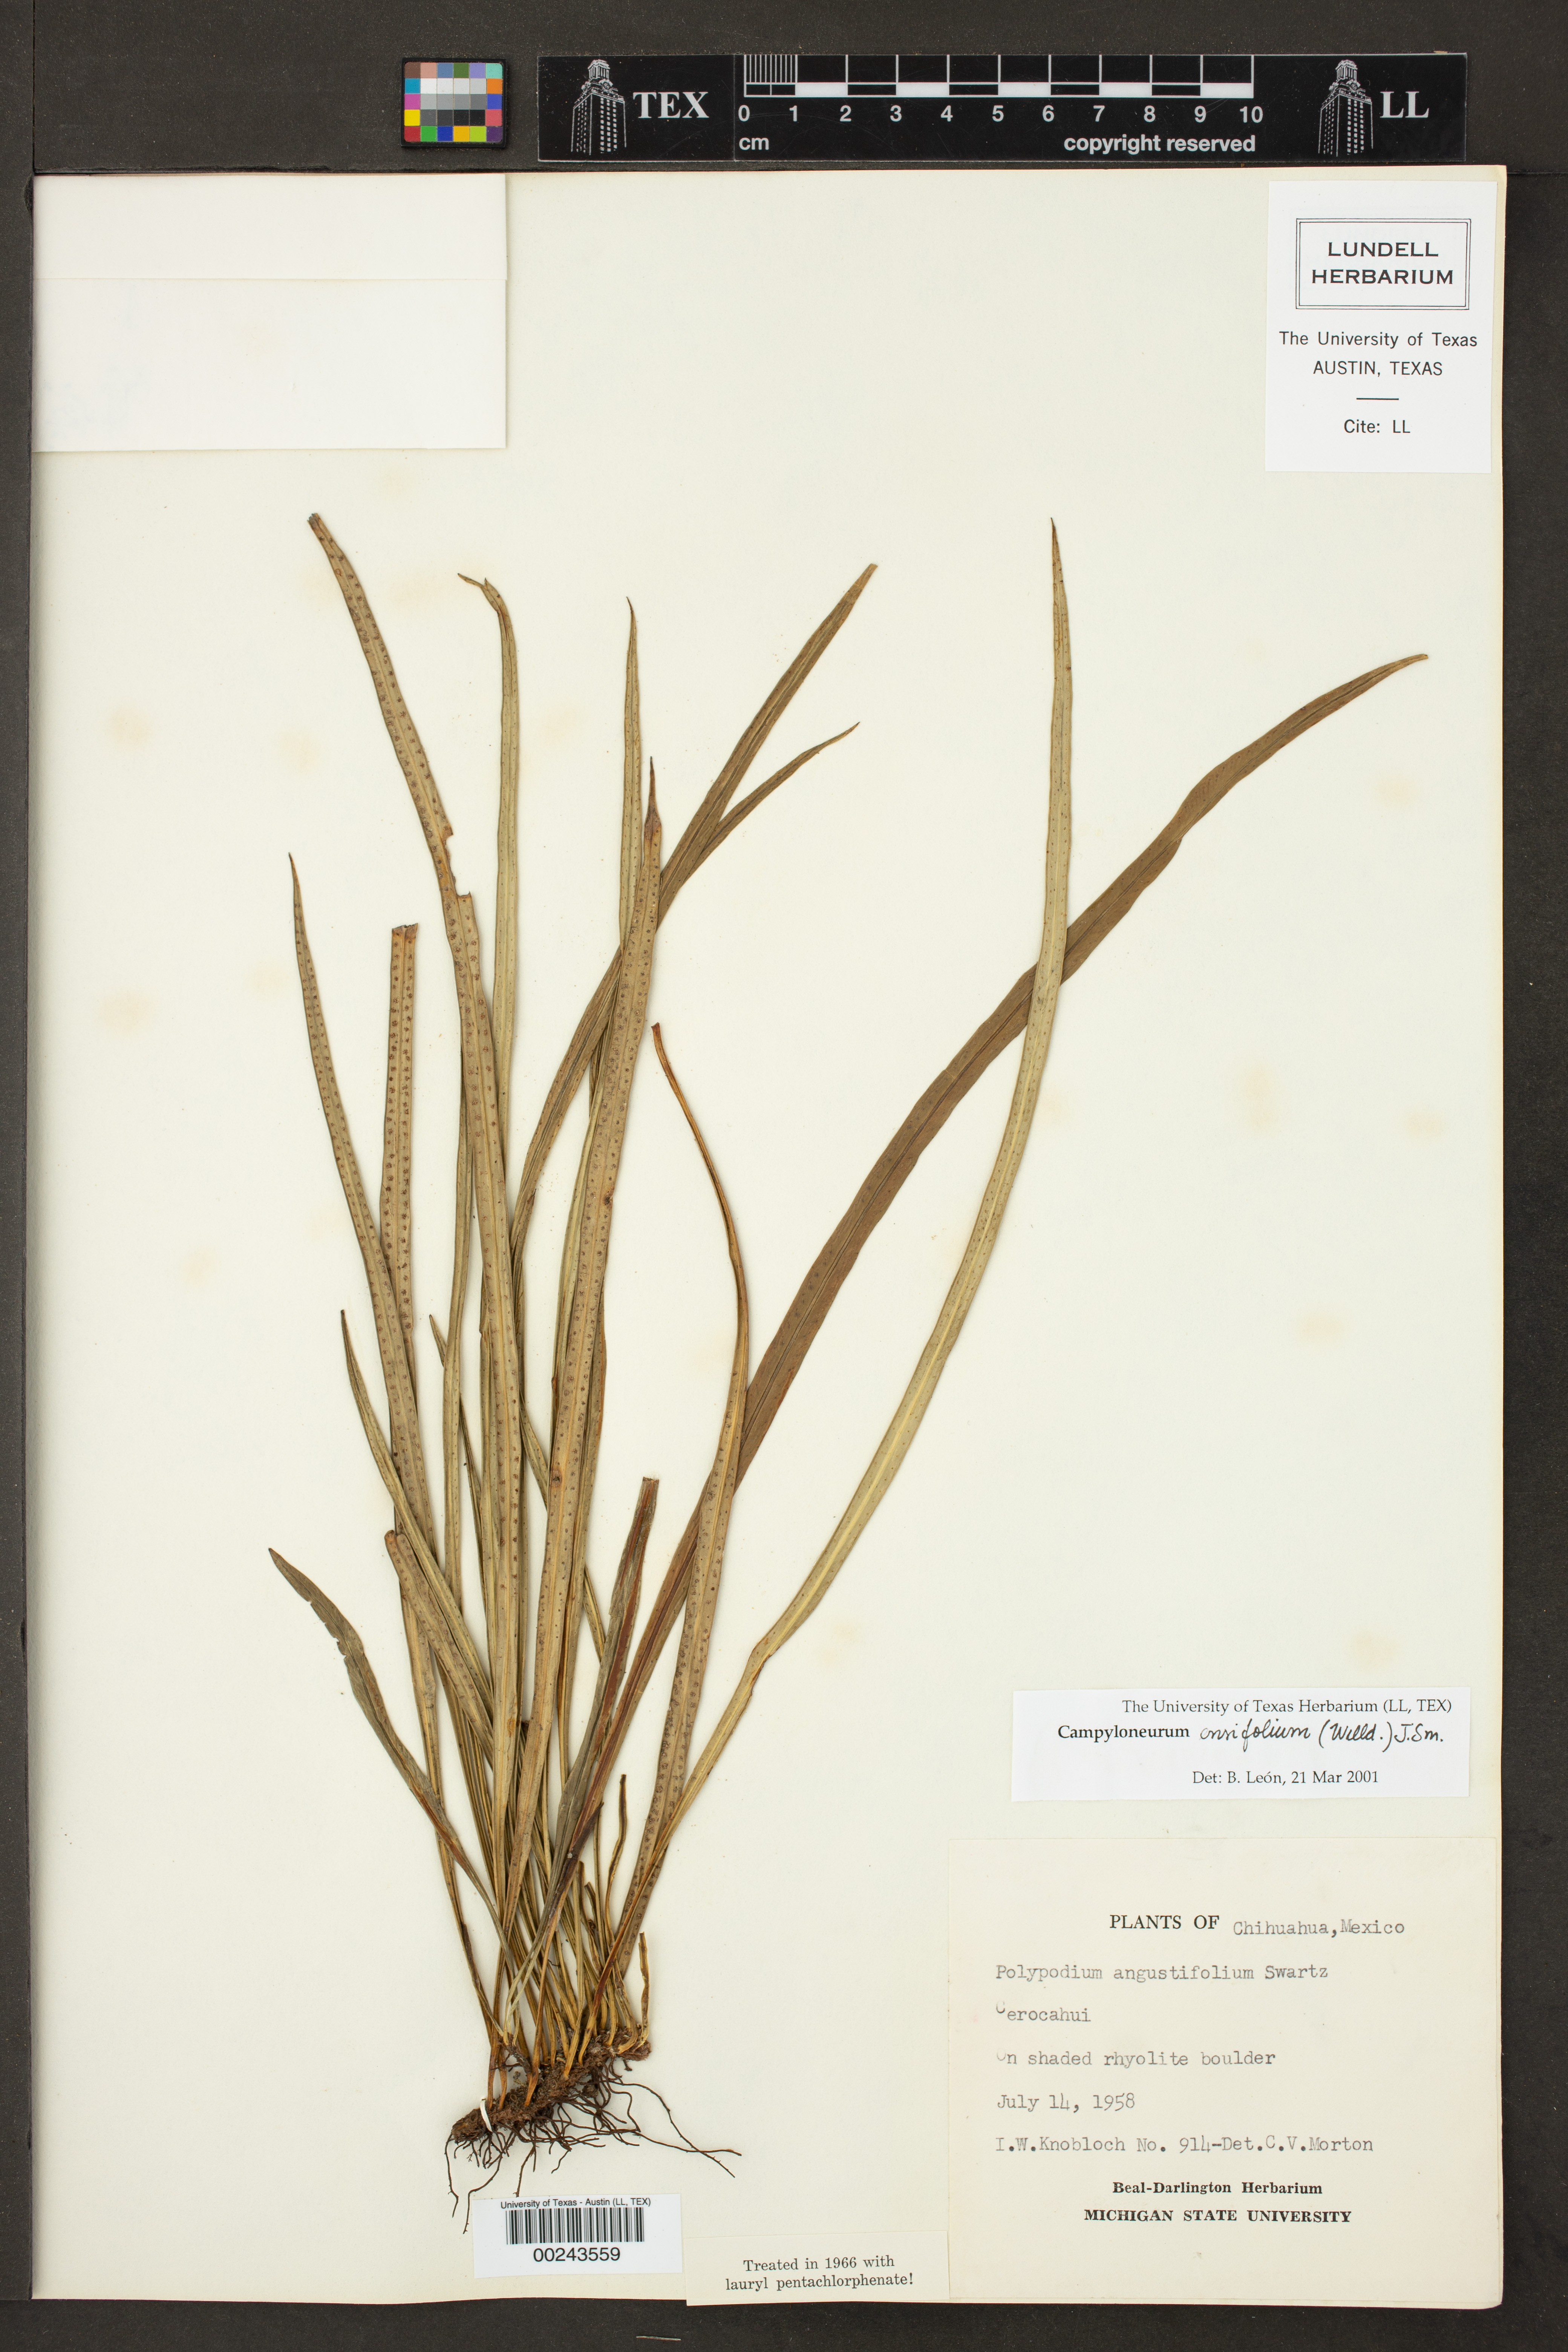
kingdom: Plantae
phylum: Tracheophyta
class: Polypodiopsida
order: Polypodiales
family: Polypodiaceae
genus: Campyloneurum
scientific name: Campyloneurum ensifolium
